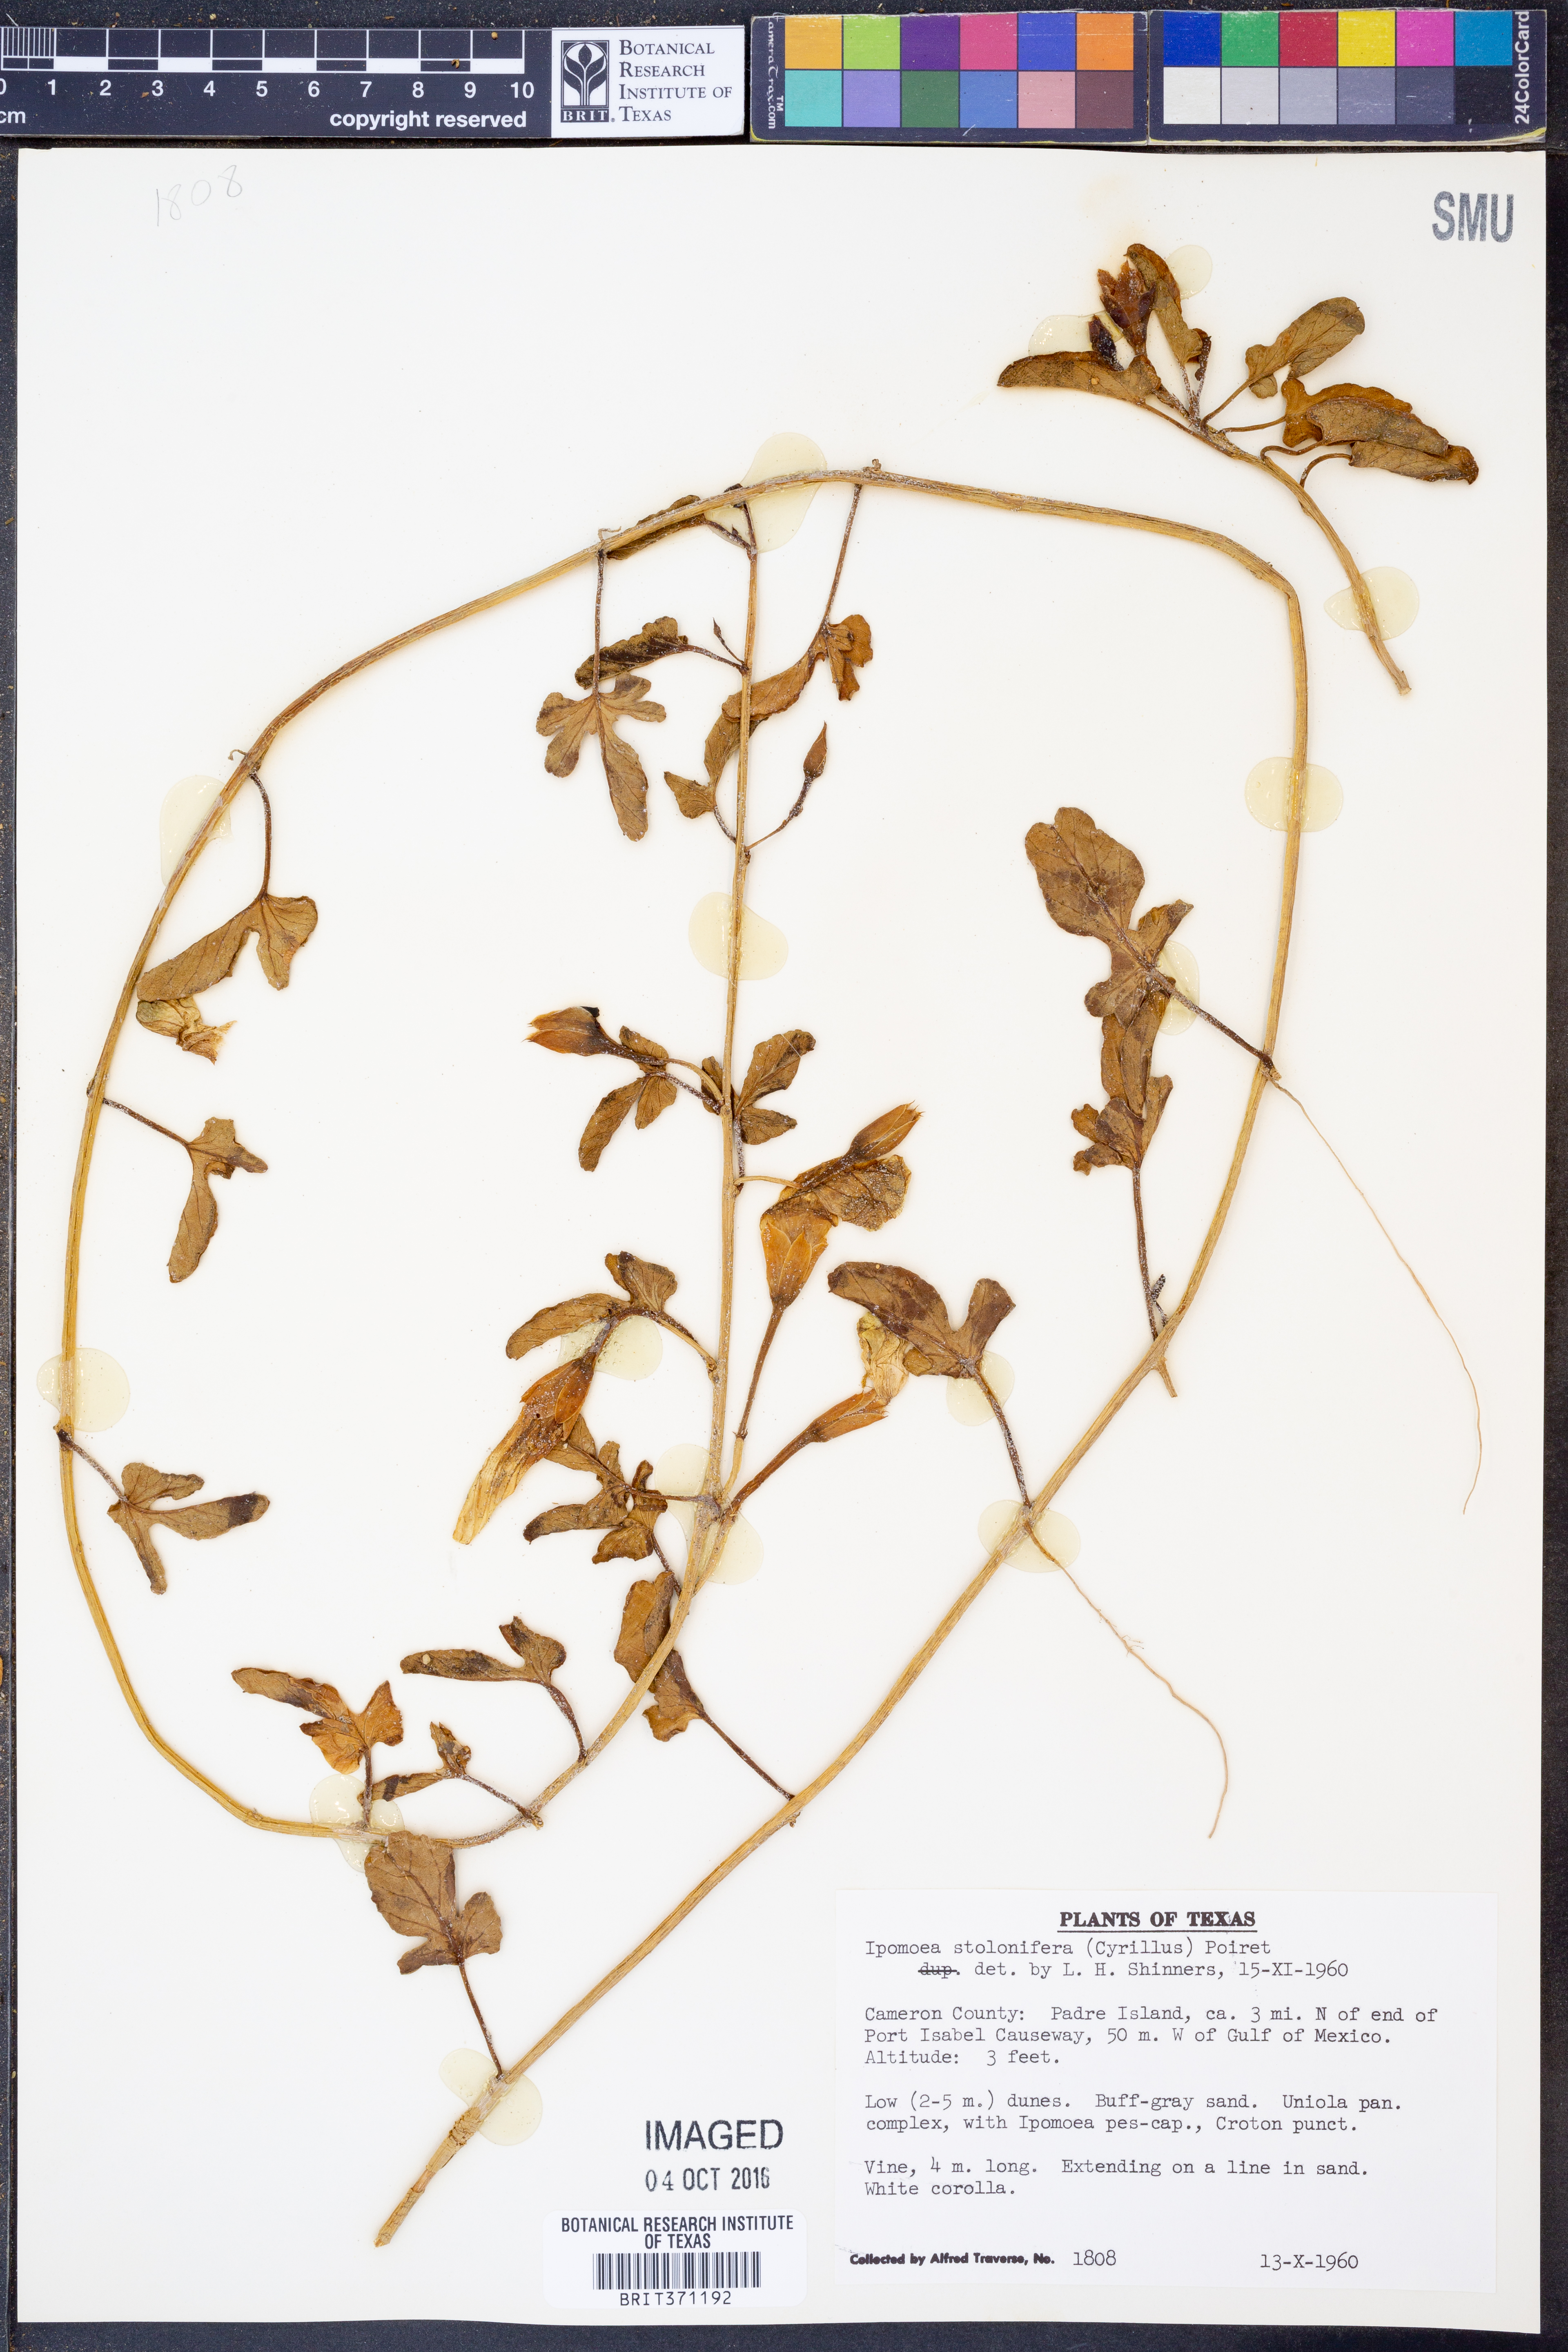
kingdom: Plantae
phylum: Tracheophyta
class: Magnoliopsida
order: Solanales
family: Convolvulaceae
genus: Ipomoea
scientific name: Ipomoea imperati
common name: Fiddle-leaf morning-glory
